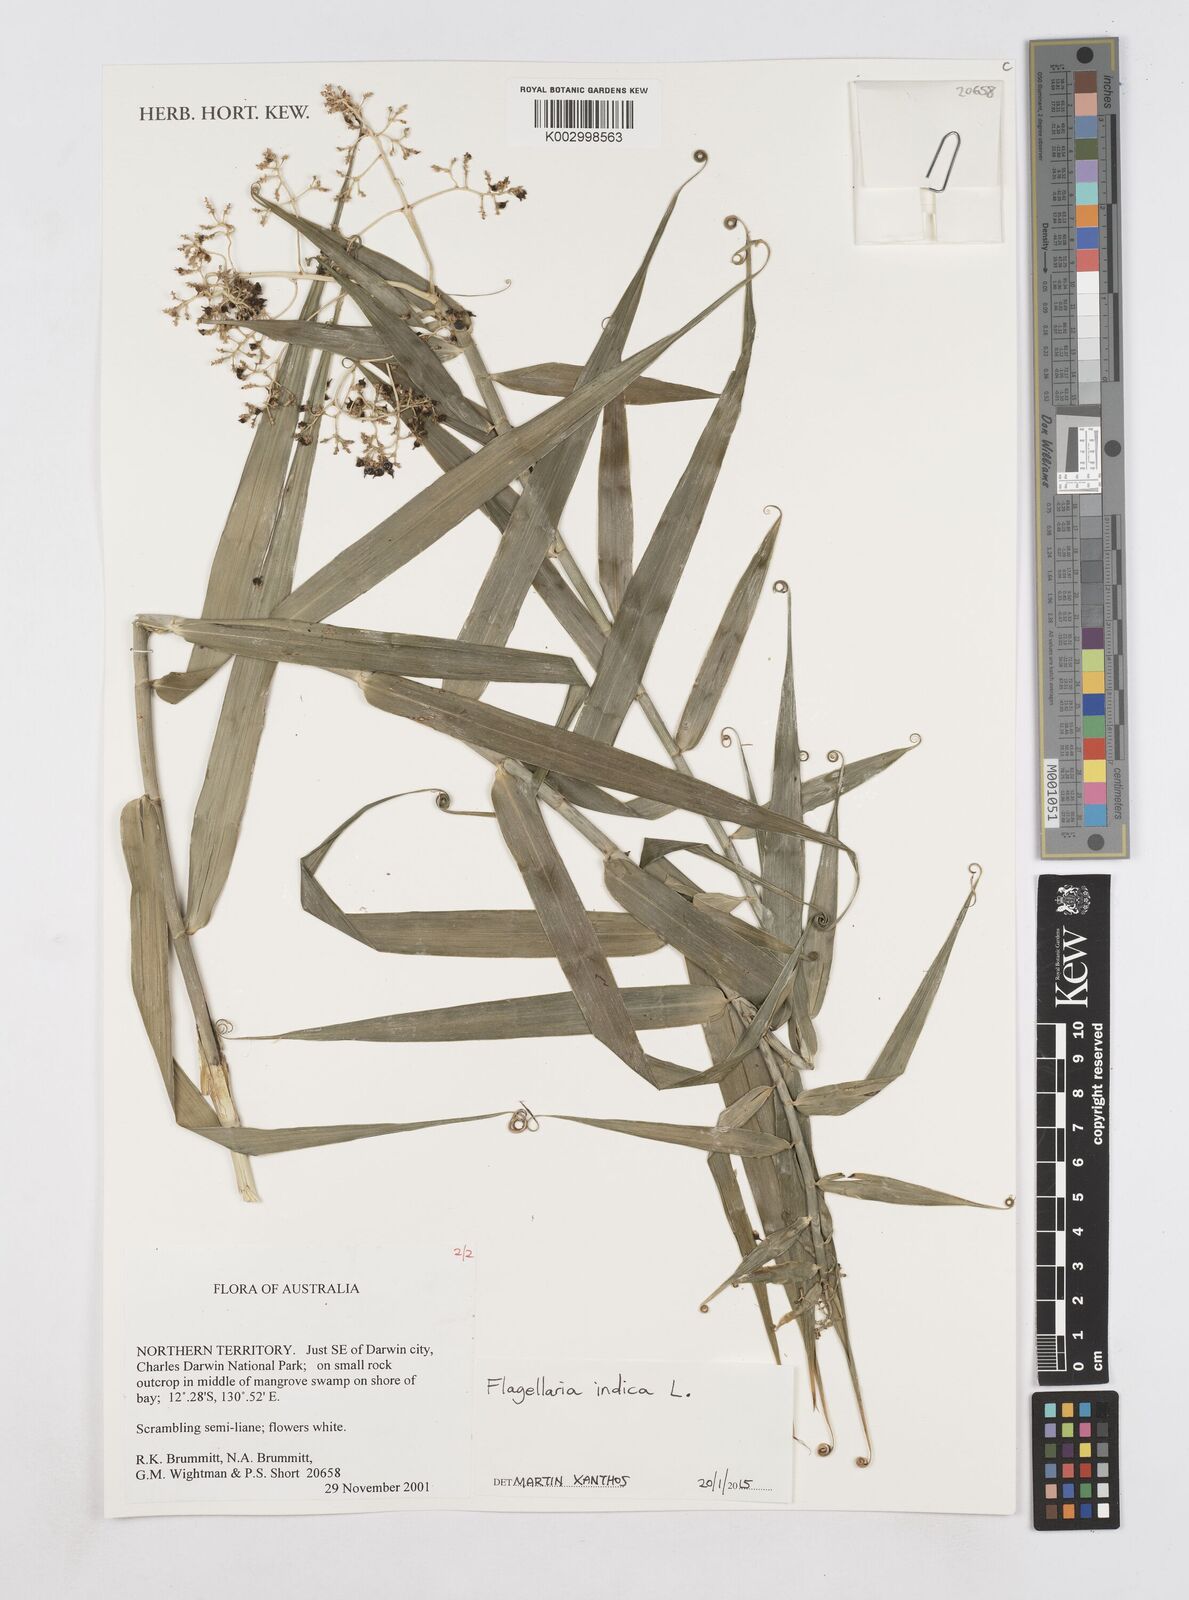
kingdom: Plantae
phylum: Tracheophyta
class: Liliopsida
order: Poales
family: Flagellariaceae
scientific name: Flagellariaceae
